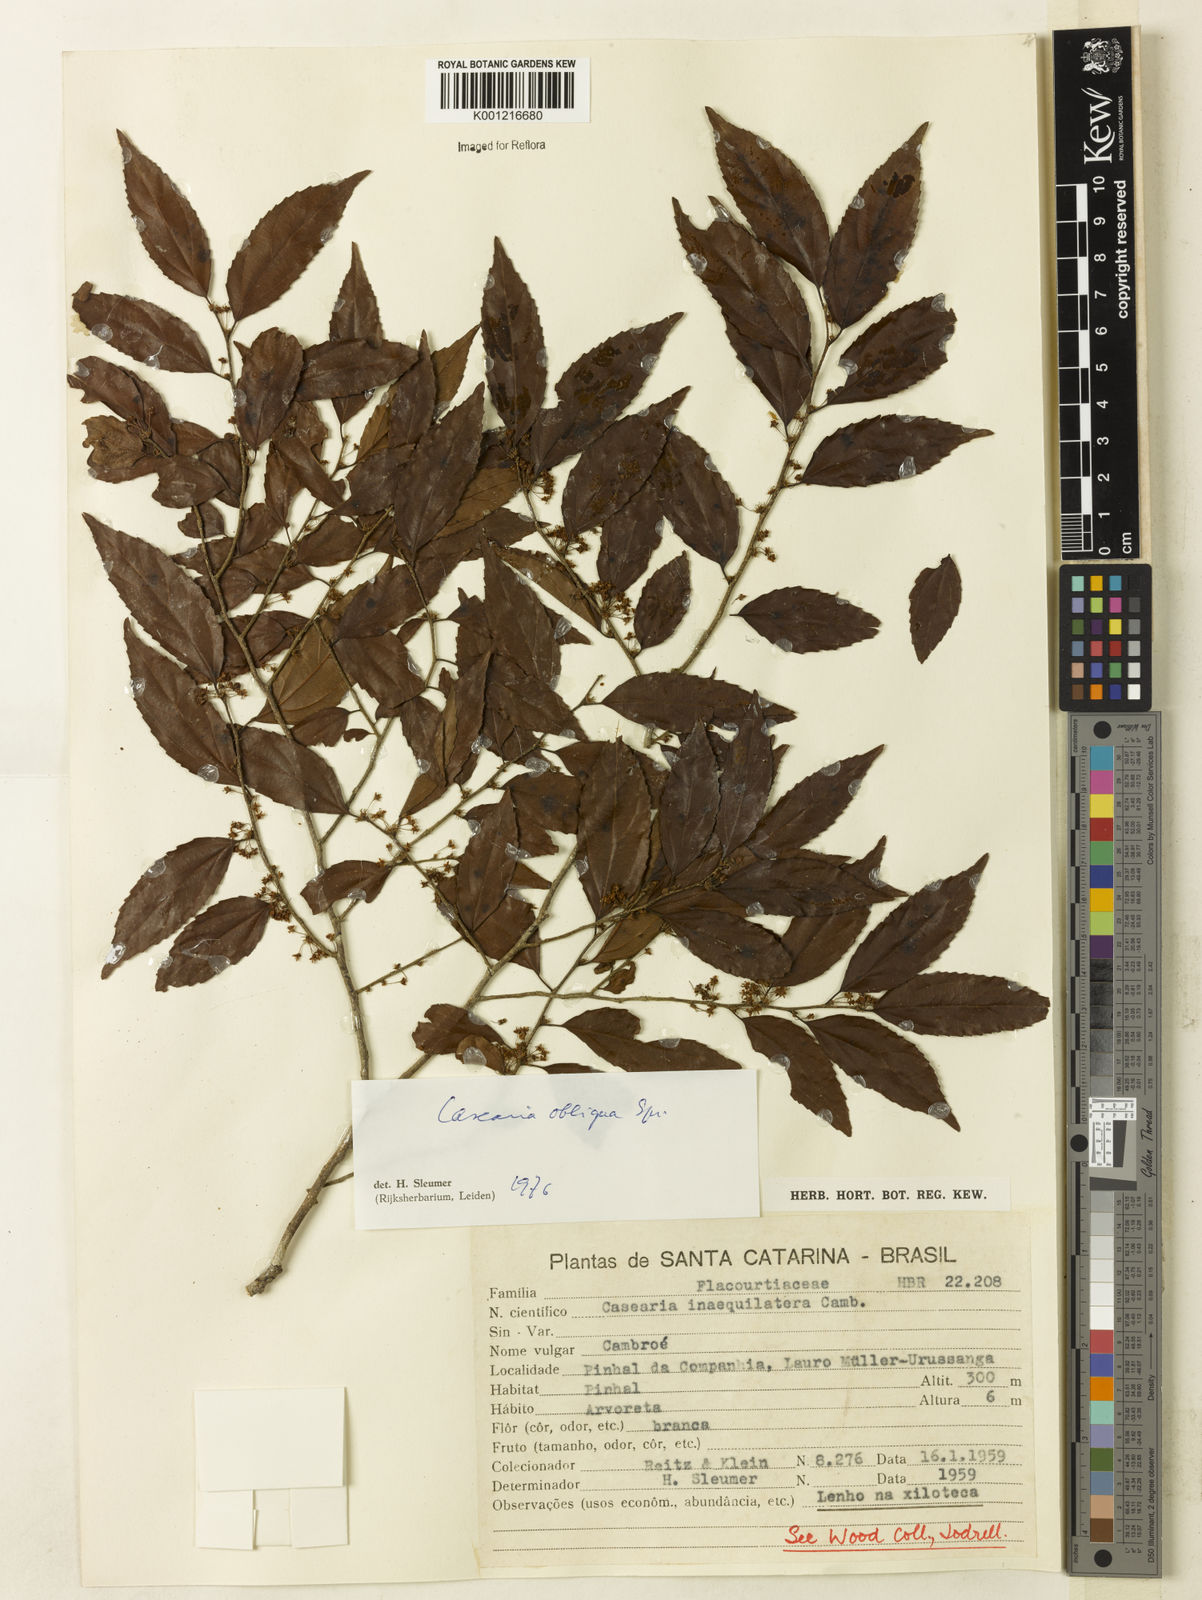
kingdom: Plantae
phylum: Tracheophyta
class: Magnoliopsida
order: Malpighiales
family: Salicaceae
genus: Casearia
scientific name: Casearia obliqua
